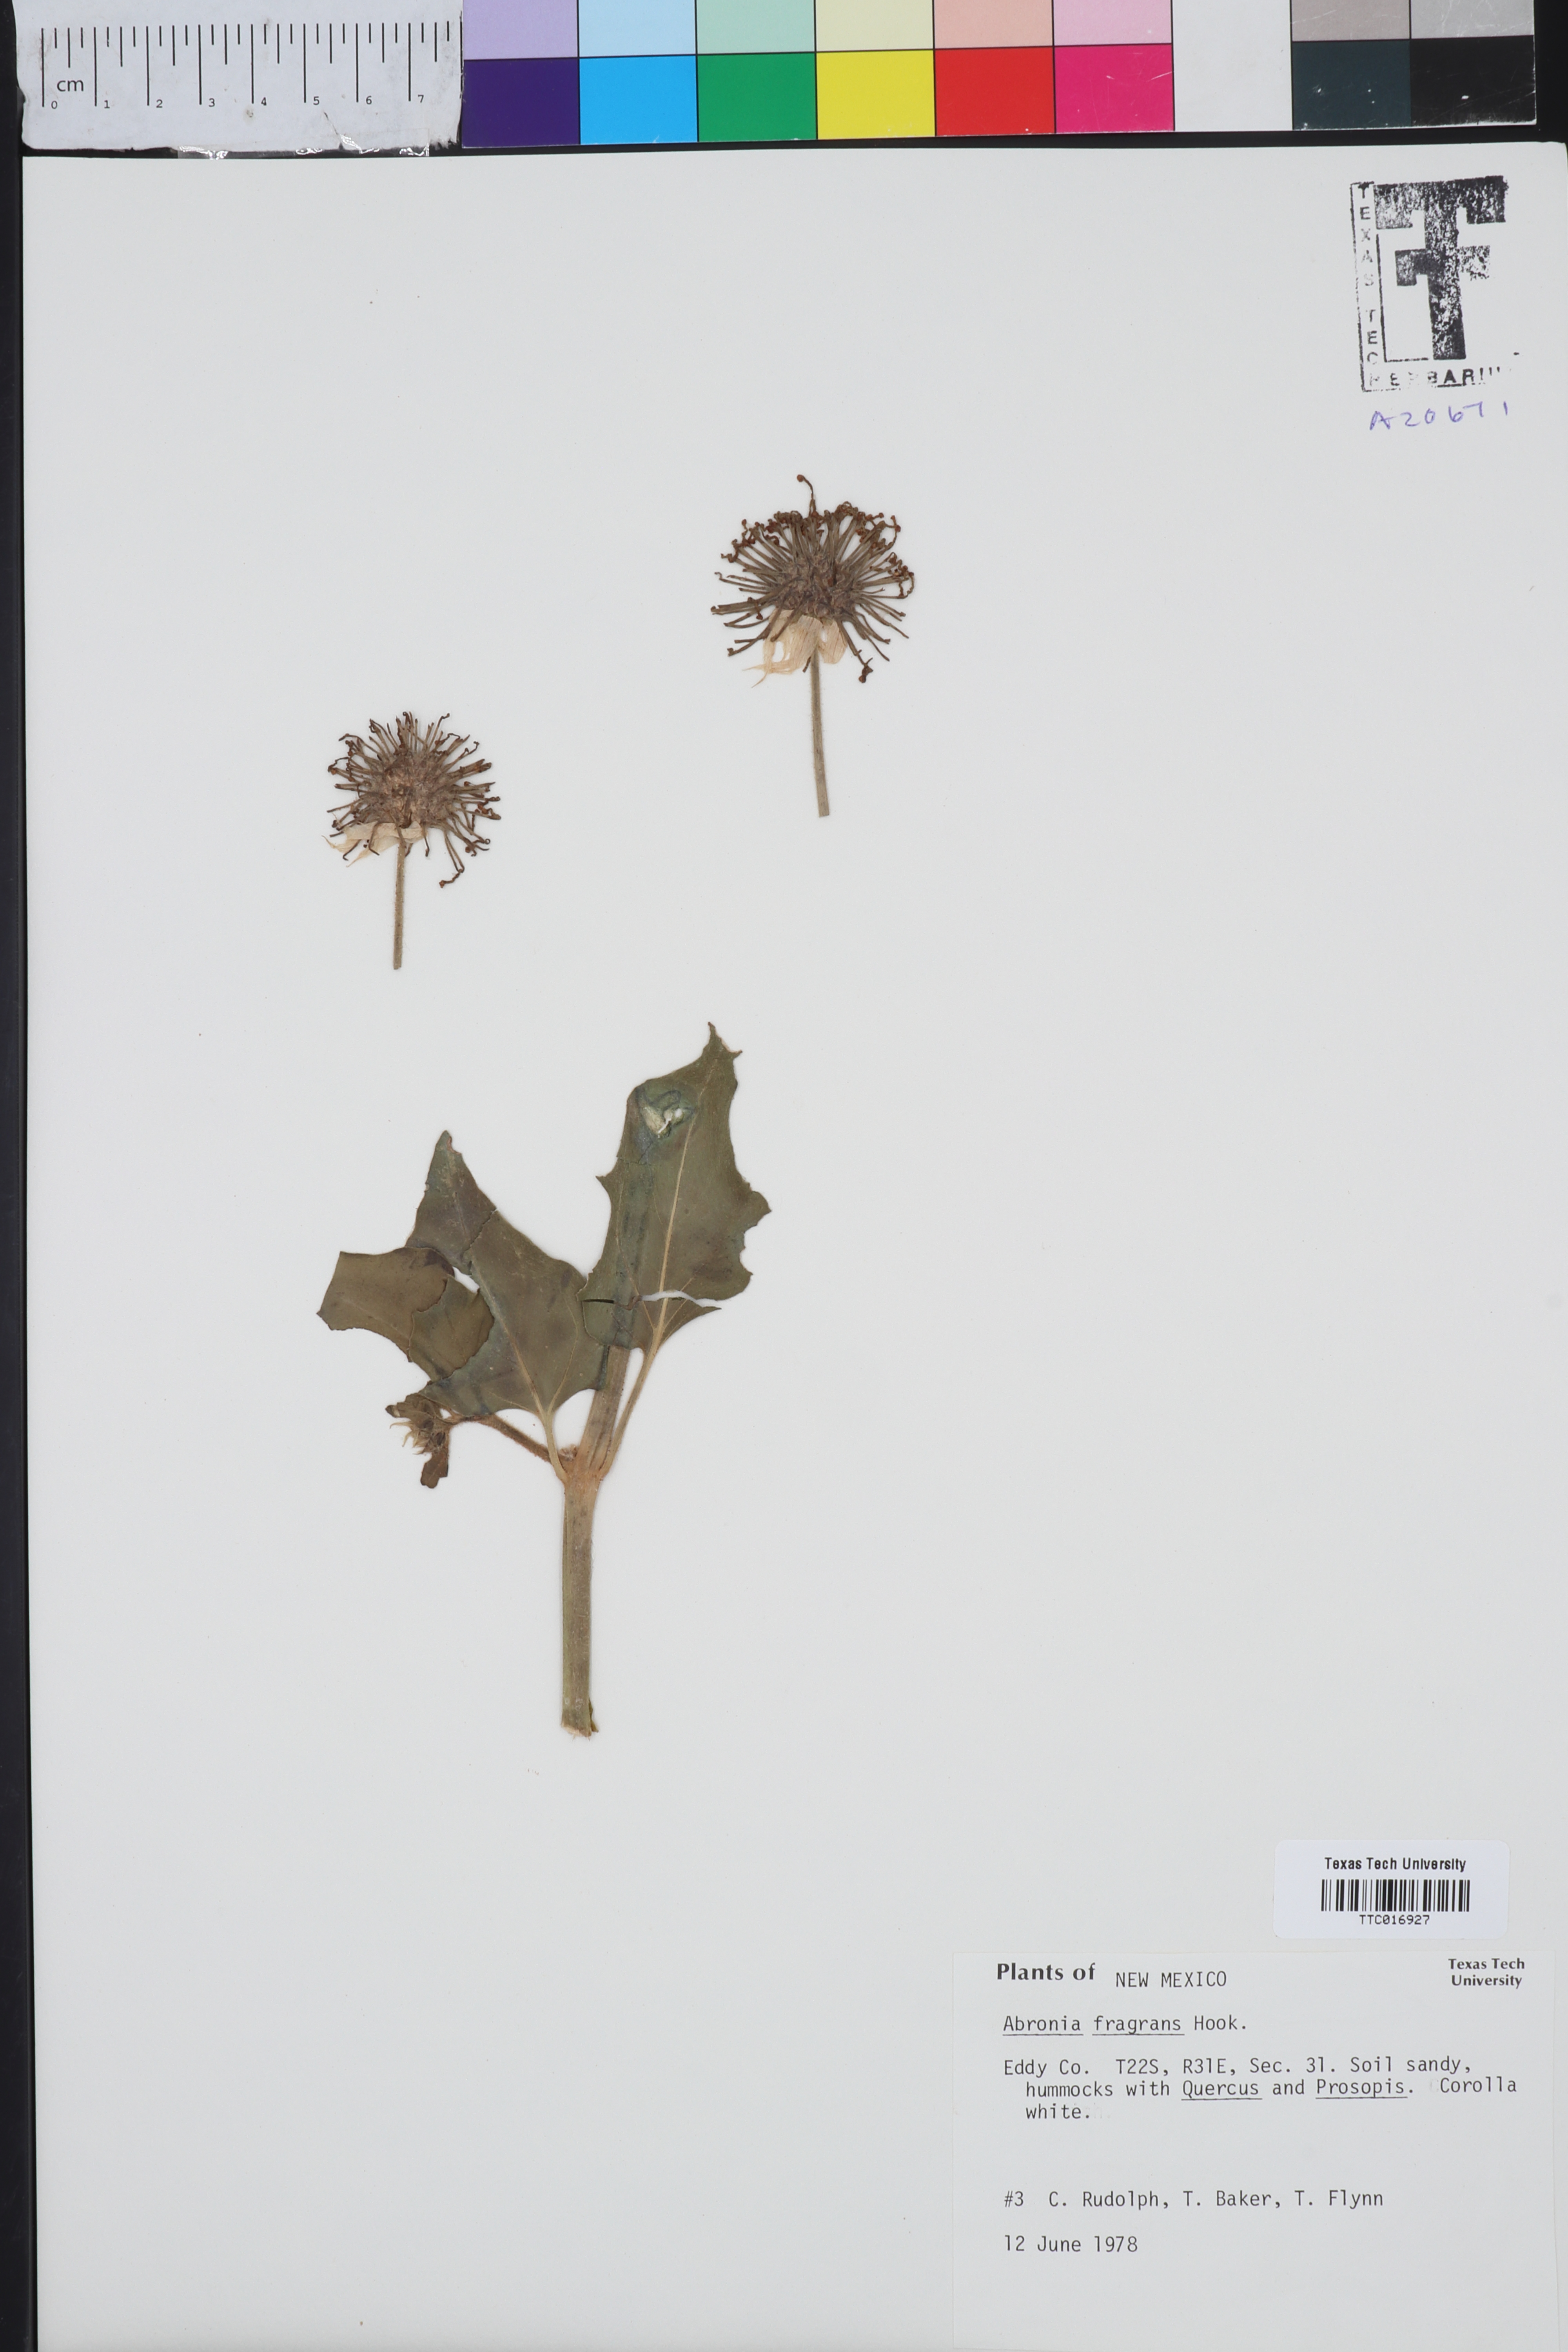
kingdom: Plantae
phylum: Tracheophyta
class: Magnoliopsida
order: Caryophyllales
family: Nyctaginaceae
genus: Abronia
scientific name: Abronia fragrans
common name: Fragrant sand-verbena
